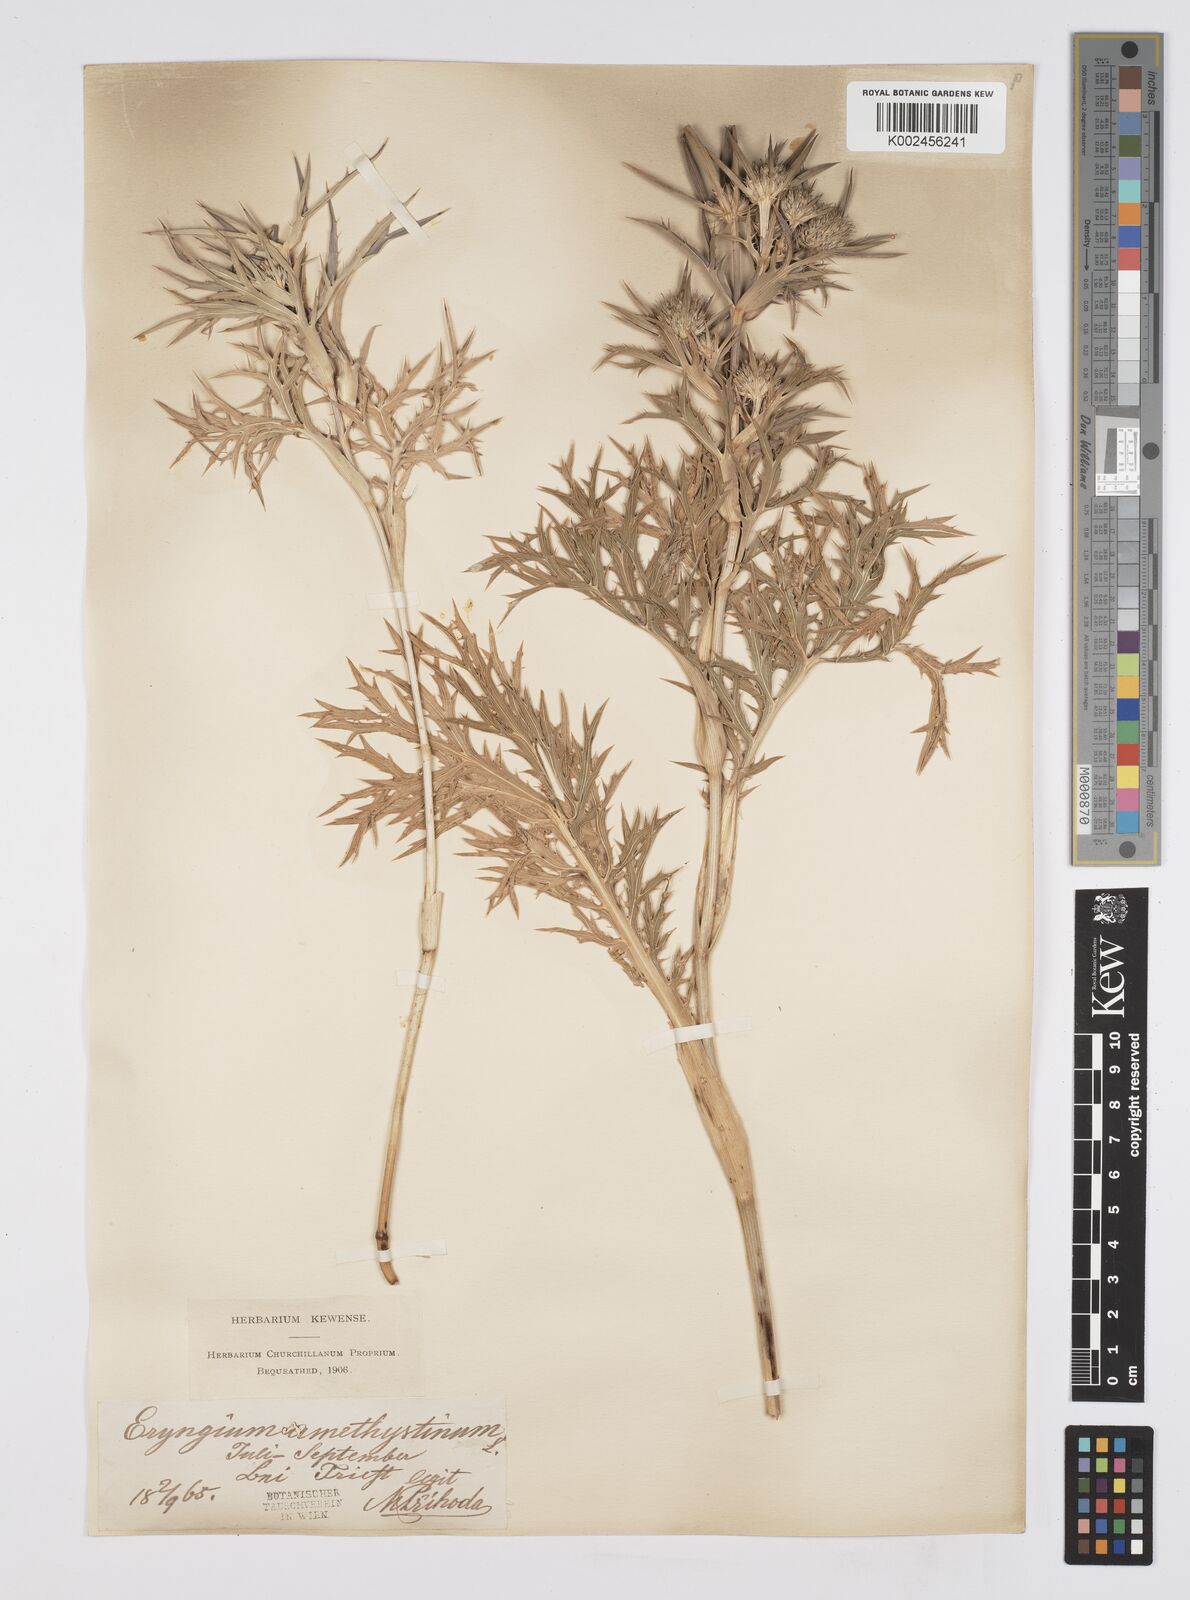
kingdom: Plantae
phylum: Tracheophyta
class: Magnoliopsida
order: Apiales
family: Apiaceae
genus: Eryngium
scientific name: Eryngium amethystinum
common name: Amethyst eryngo
